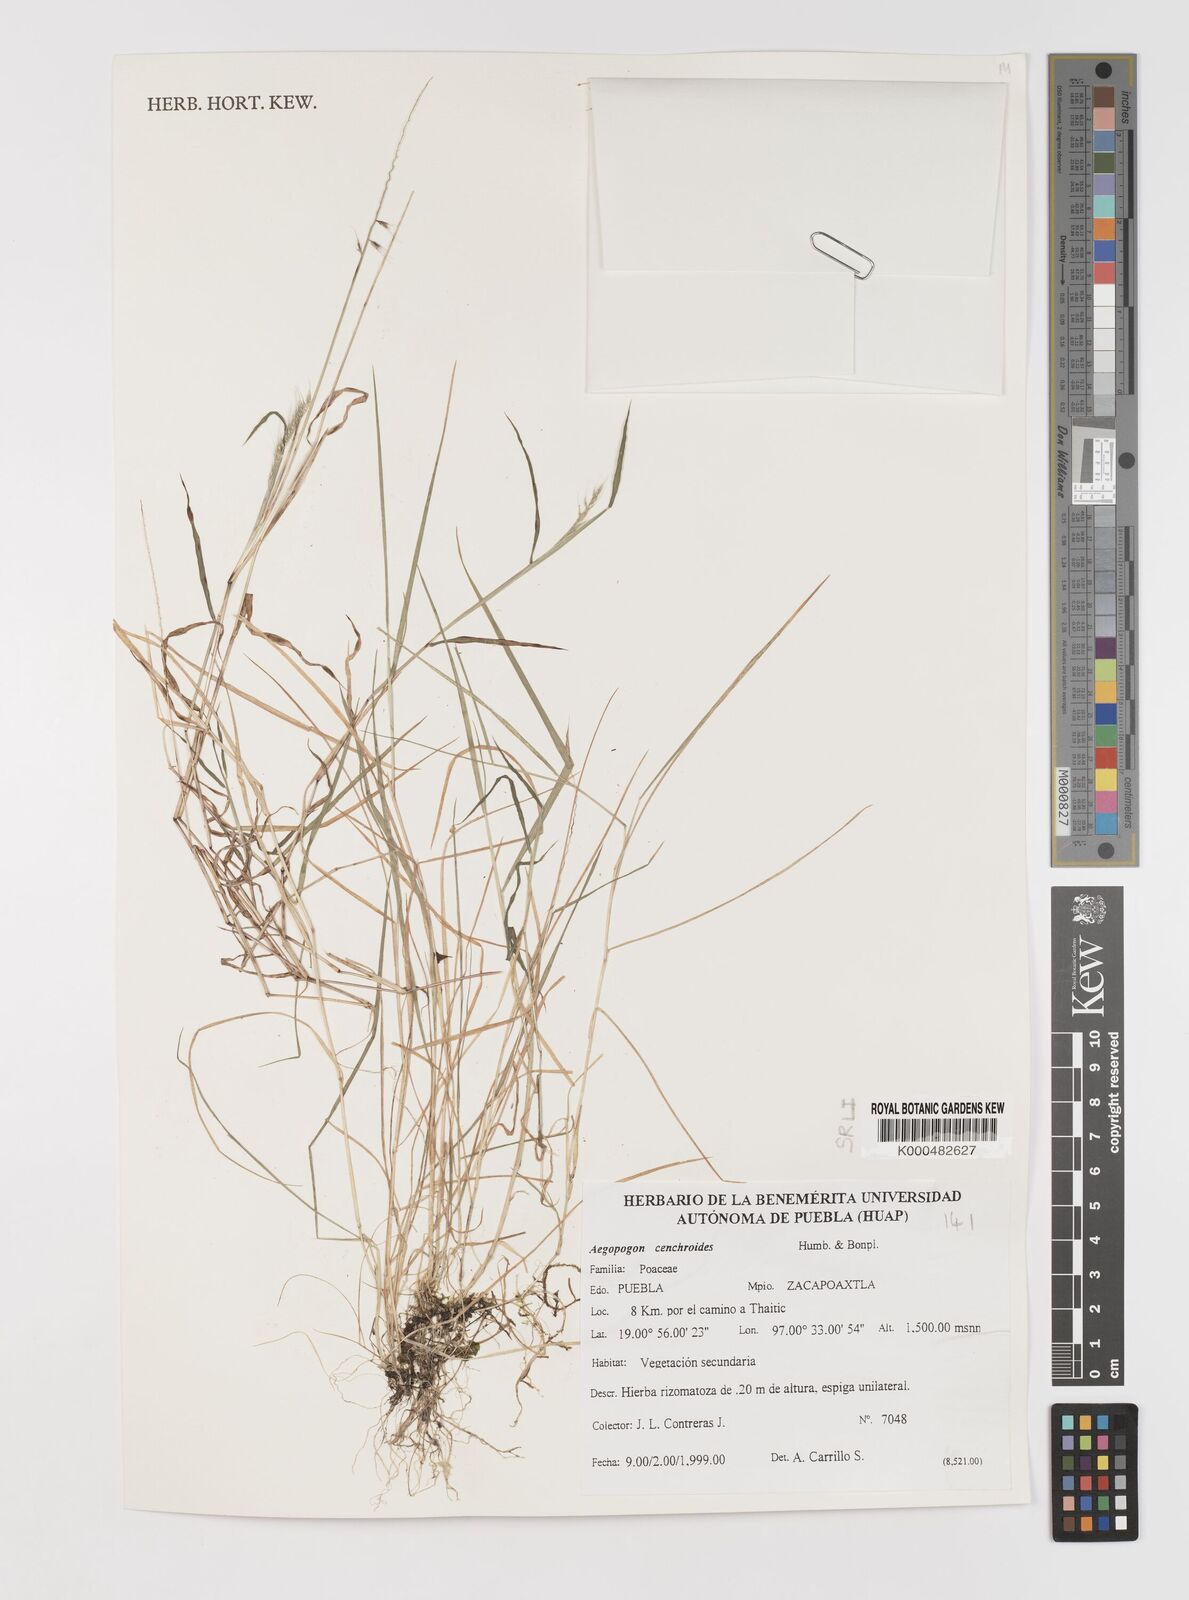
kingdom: Plantae
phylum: Tracheophyta
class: Liliopsida
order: Poales
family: Poaceae
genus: Muhlenbergia
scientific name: Muhlenbergia
